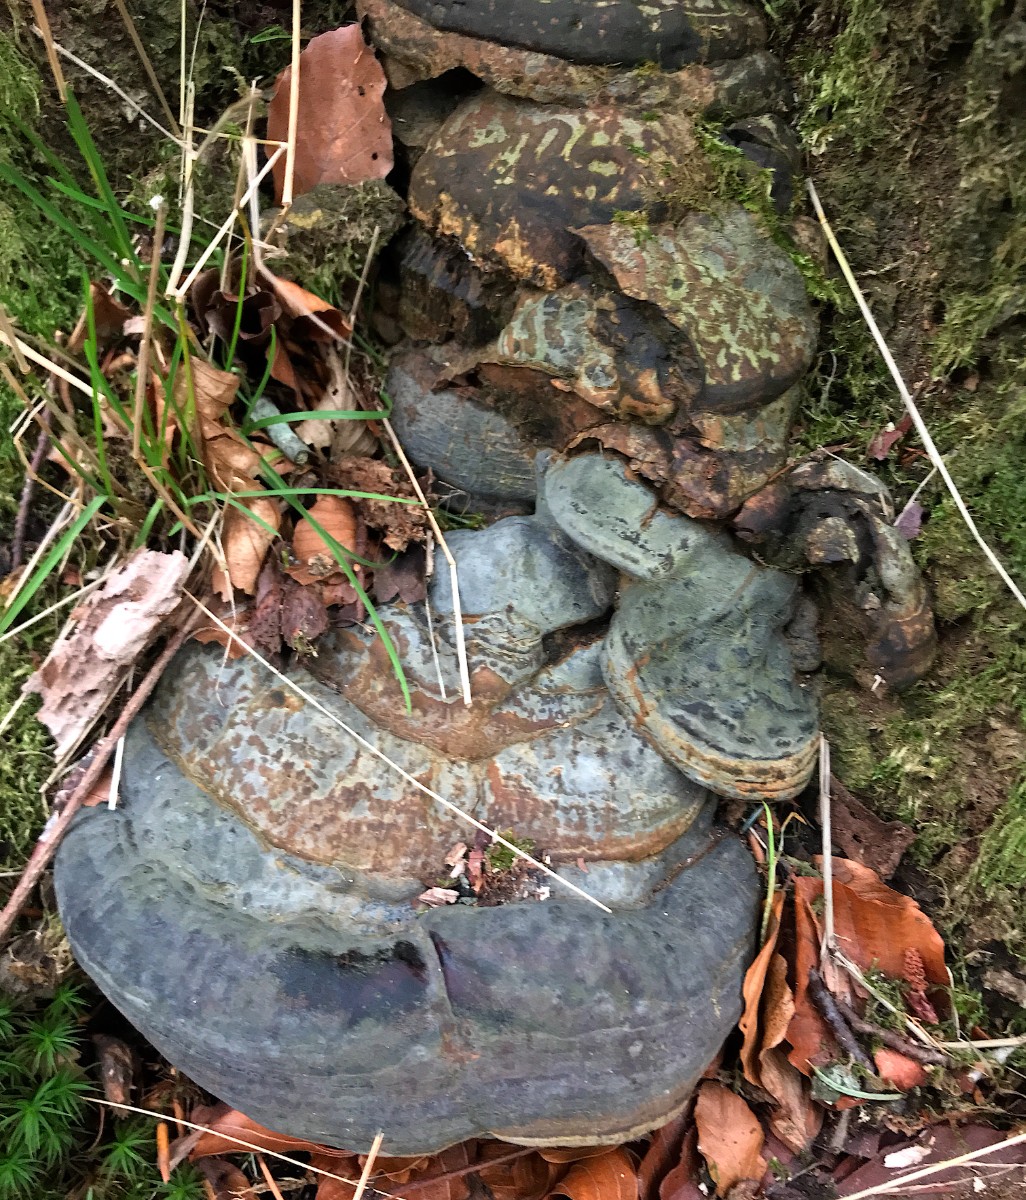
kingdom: Fungi
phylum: Basidiomycota
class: Agaricomycetes
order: Polyporales
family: Polyporaceae
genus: Ganoderma
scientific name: Ganoderma pfeifferi
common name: kobberrød lakporesvamp
